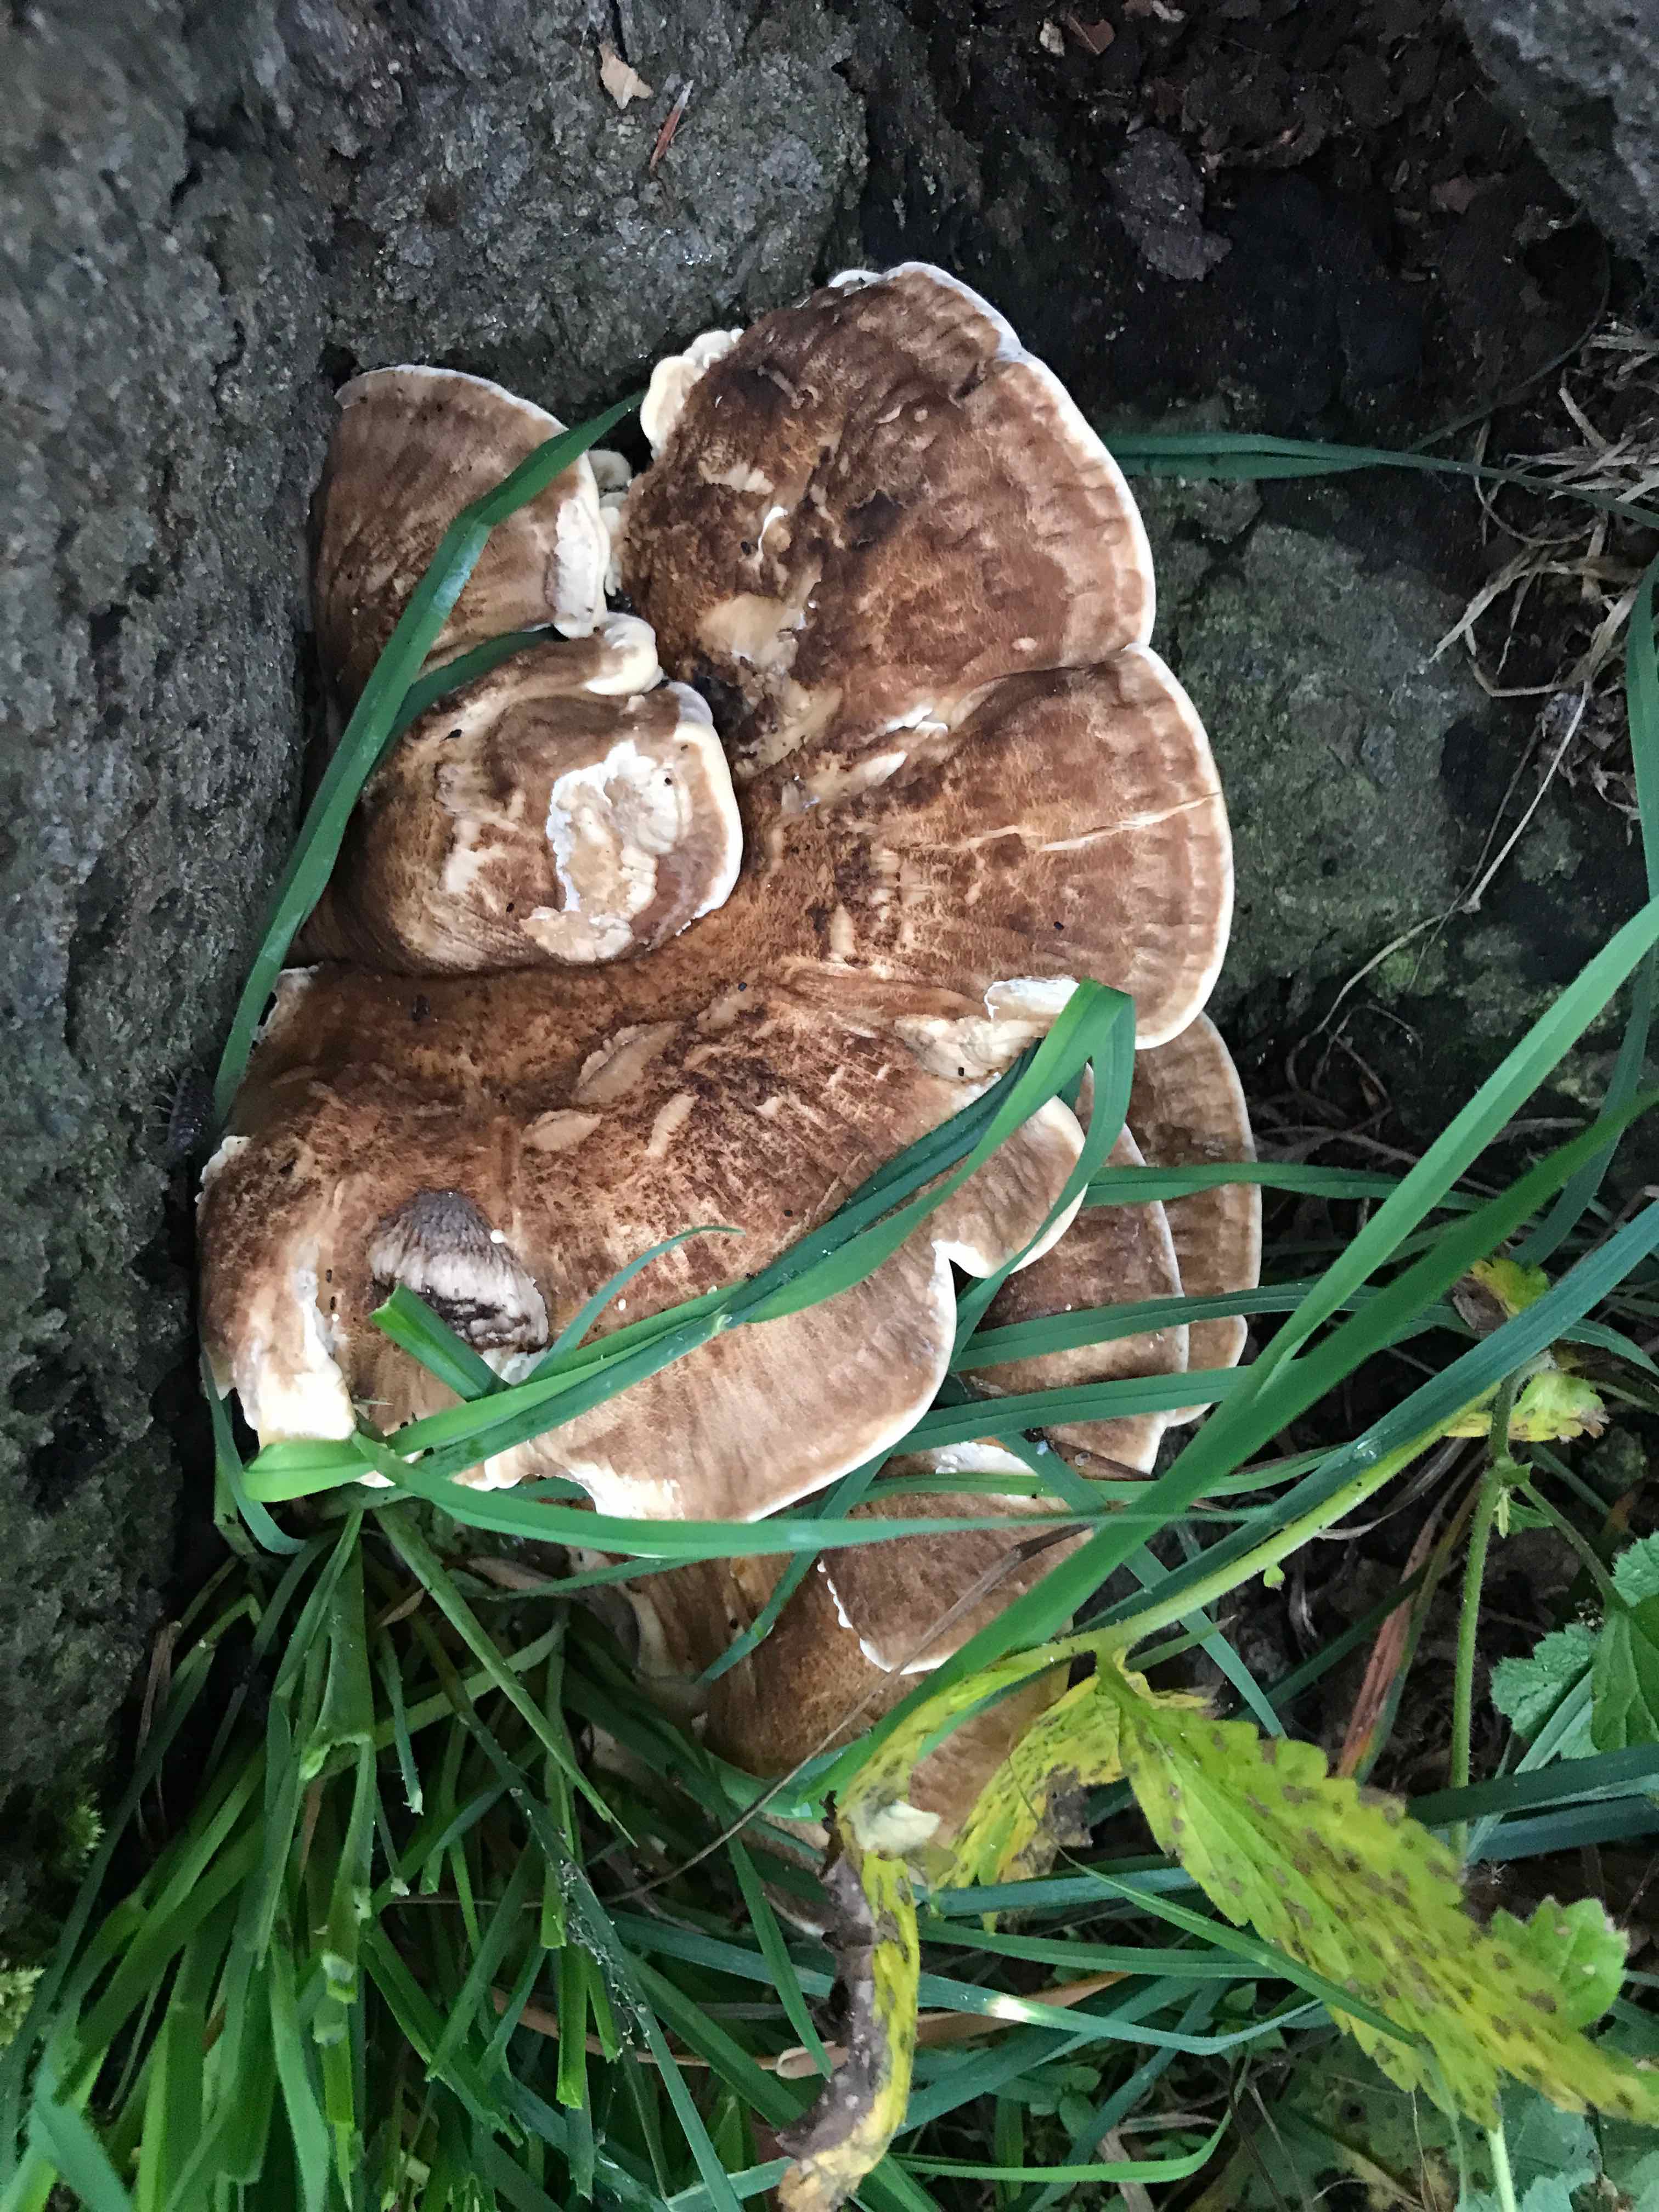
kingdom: Fungi
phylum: Basidiomycota
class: Agaricomycetes
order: Polyporales
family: Meripilaceae
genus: Meripilus
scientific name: Meripilus giganteus
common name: kæmpeporesvamp
